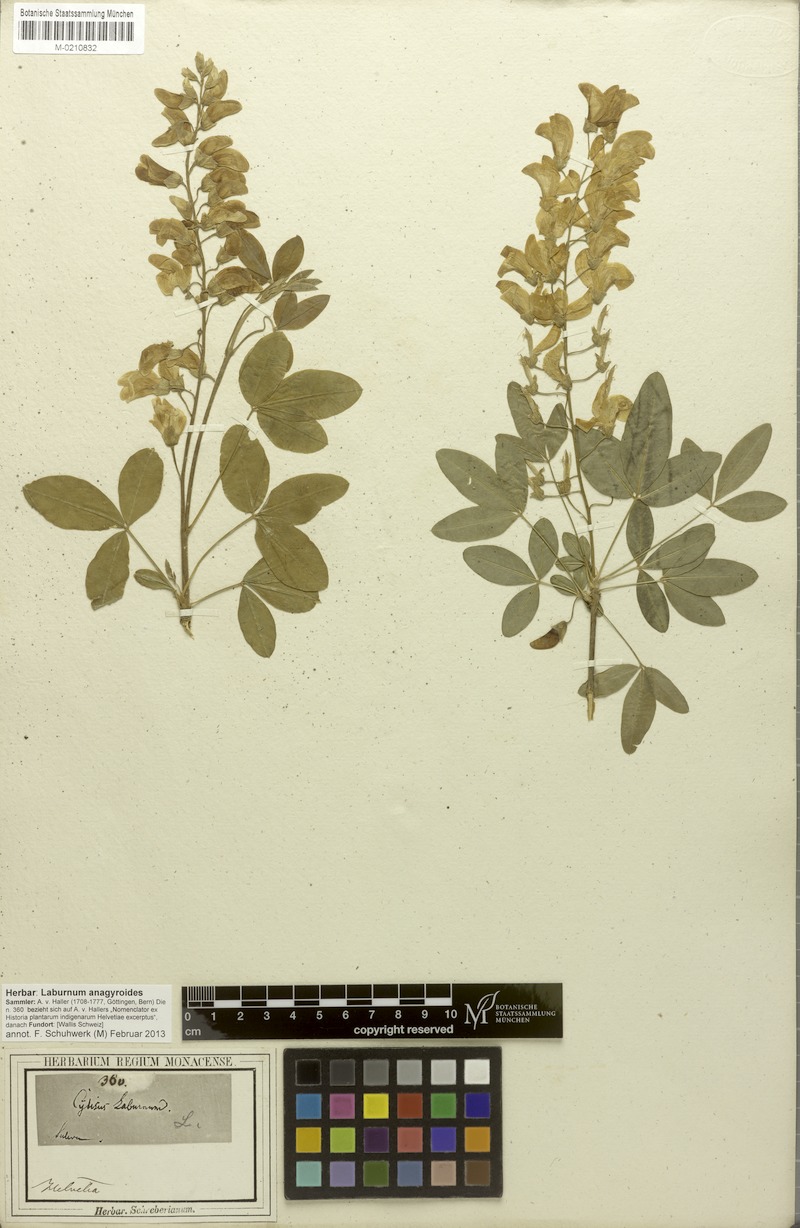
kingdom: Plantae
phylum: Tracheophyta
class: Magnoliopsida
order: Fabales
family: Fabaceae
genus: Laburnum
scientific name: Laburnum anagyroides
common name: Laburnum
